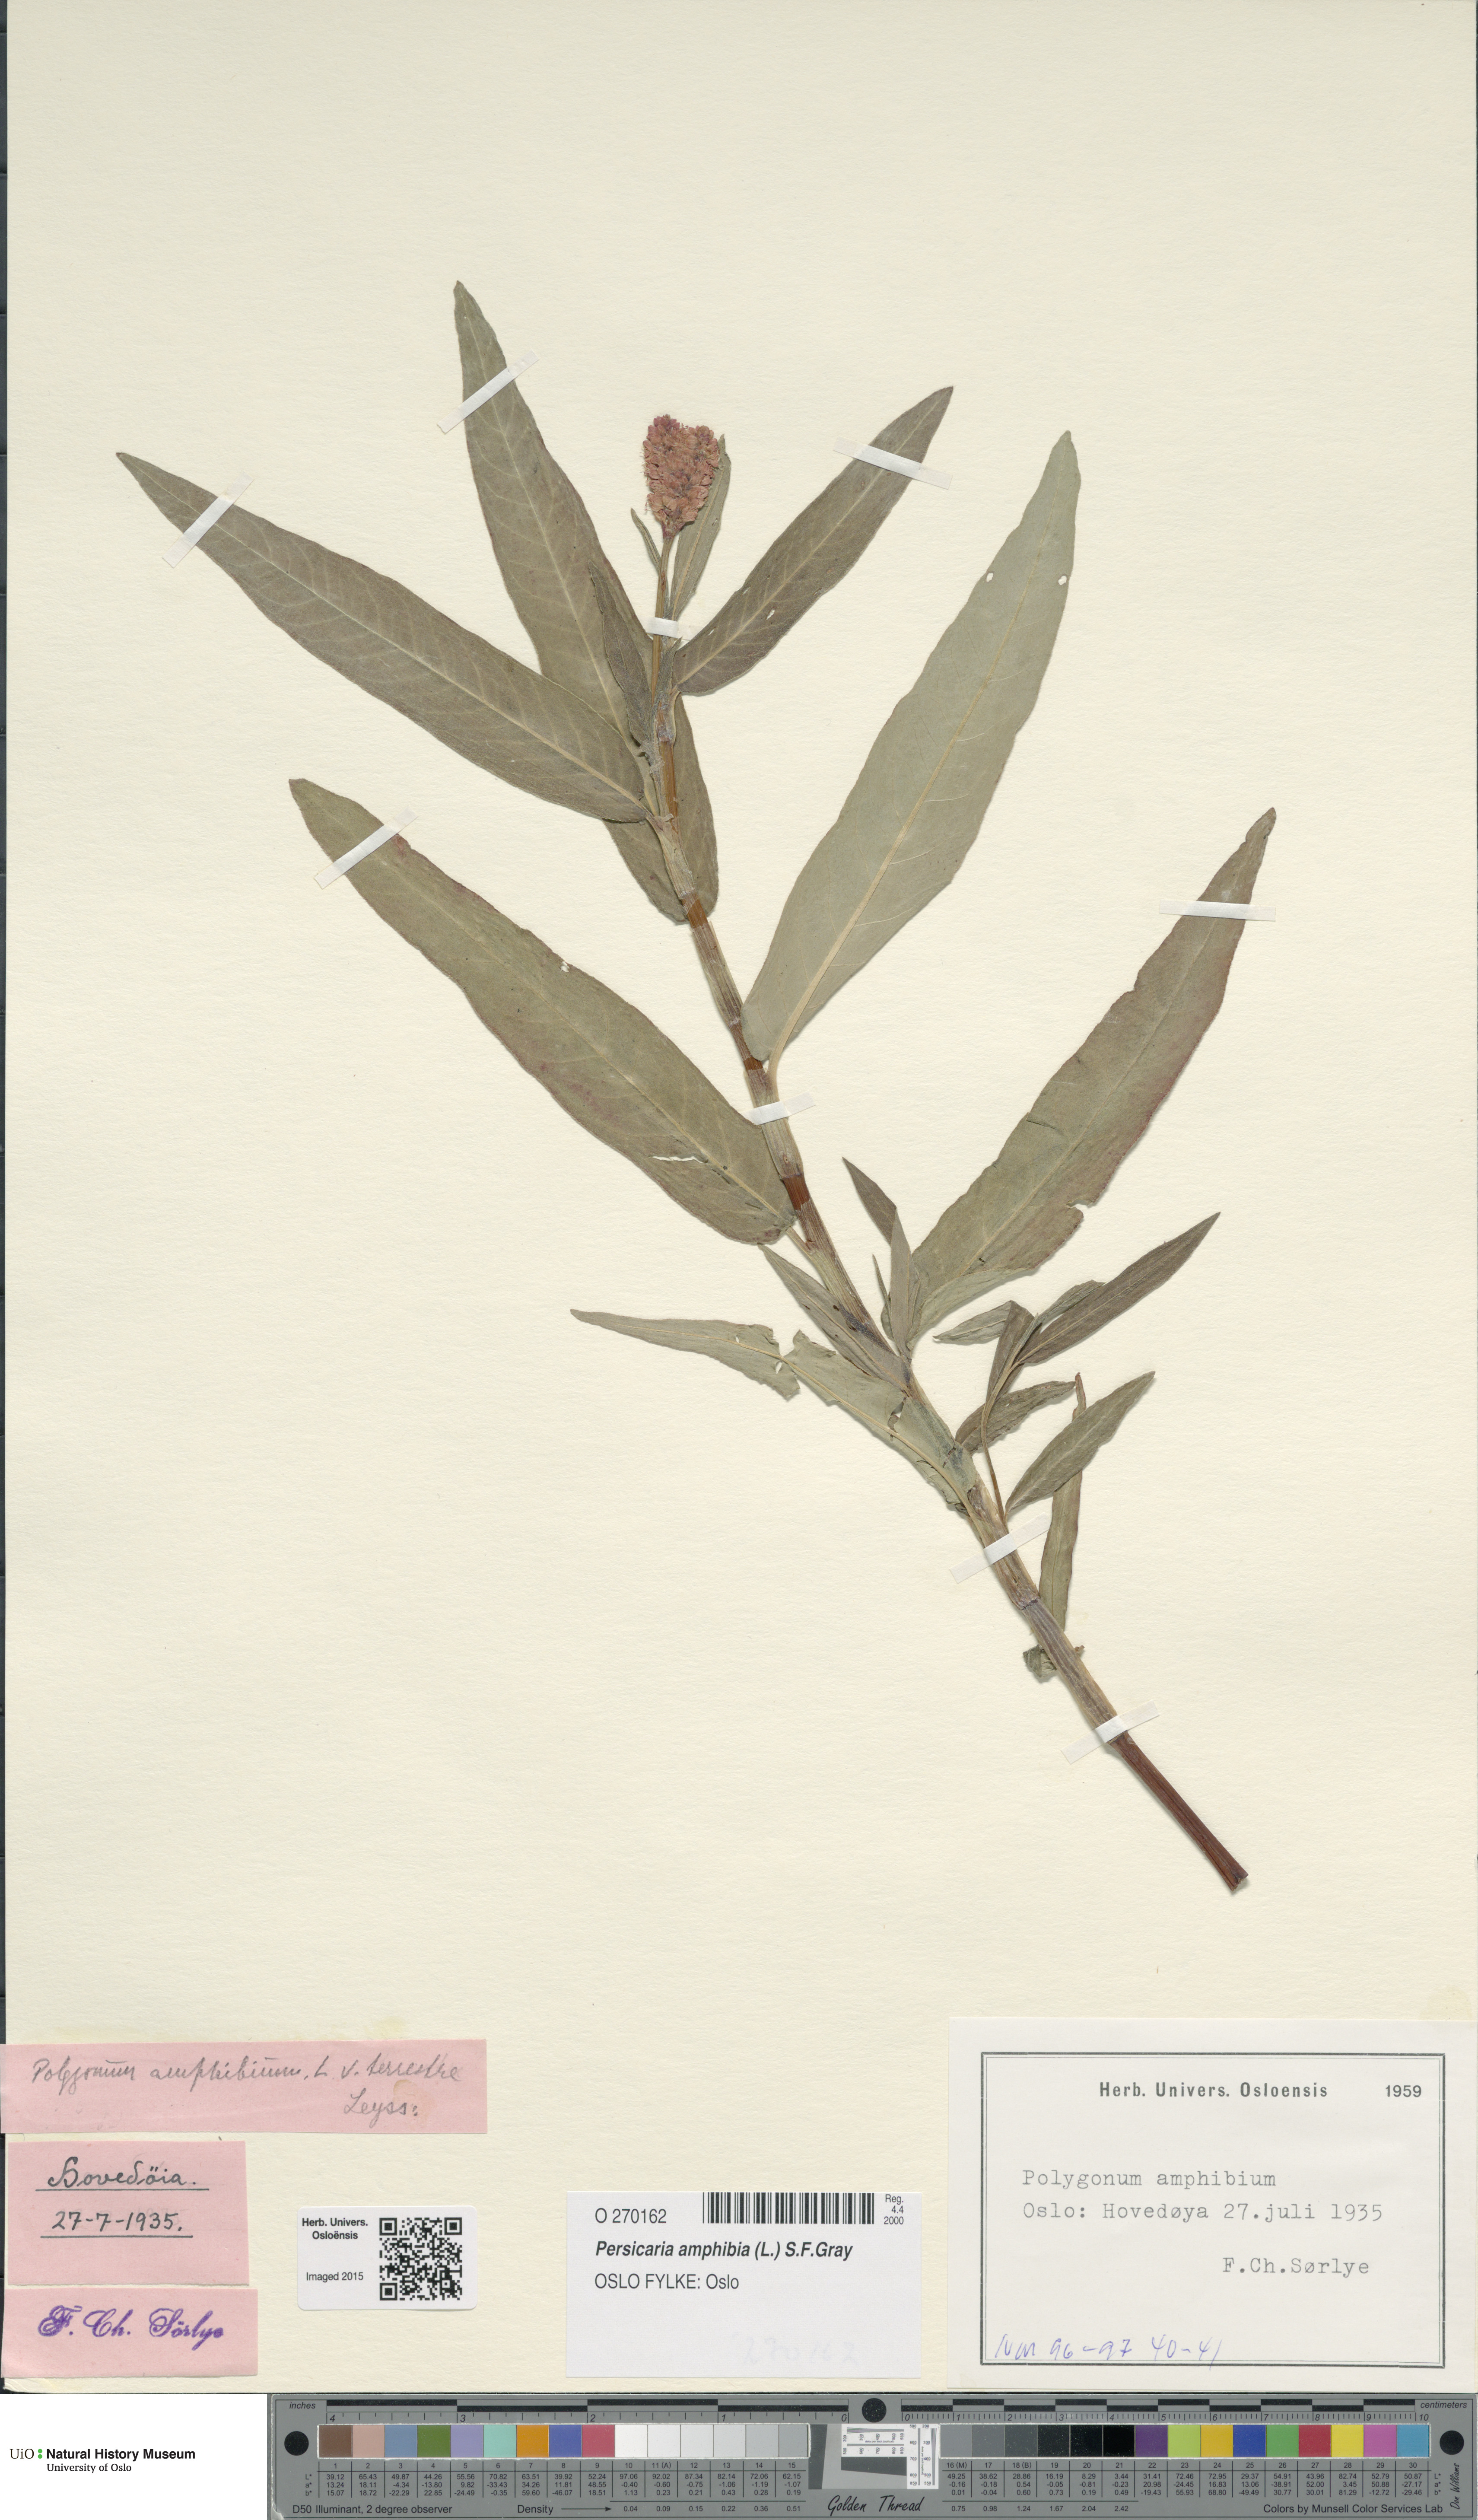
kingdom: Plantae
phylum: Tracheophyta
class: Magnoliopsida
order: Caryophyllales
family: Polygonaceae
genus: Persicaria
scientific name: Persicaria amphibia
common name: Amphibious bistort
